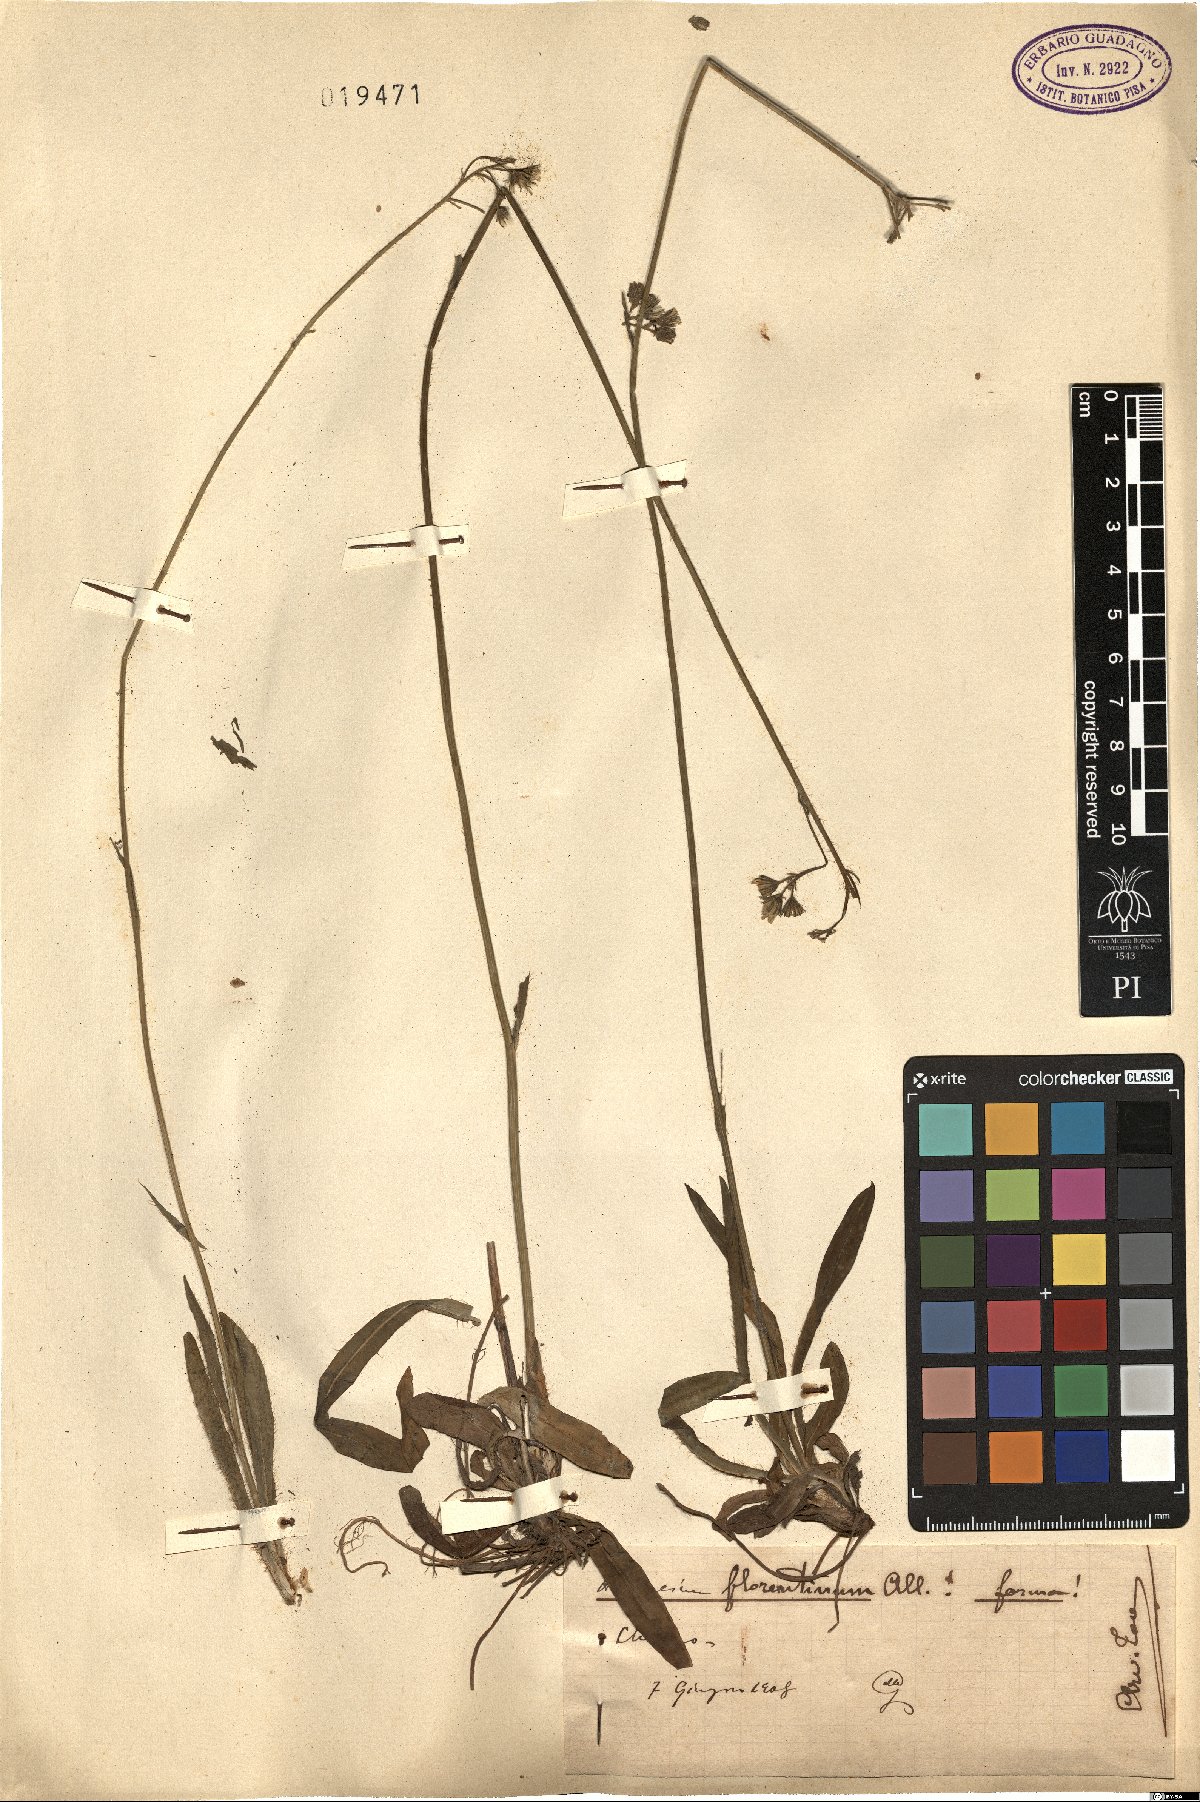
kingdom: Plantae
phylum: Tracheophyta
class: Magnoliopsida
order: Asterales
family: Asteraceae
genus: Pilosella
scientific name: Pilosella piloselloides
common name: Glaucous king-devil
